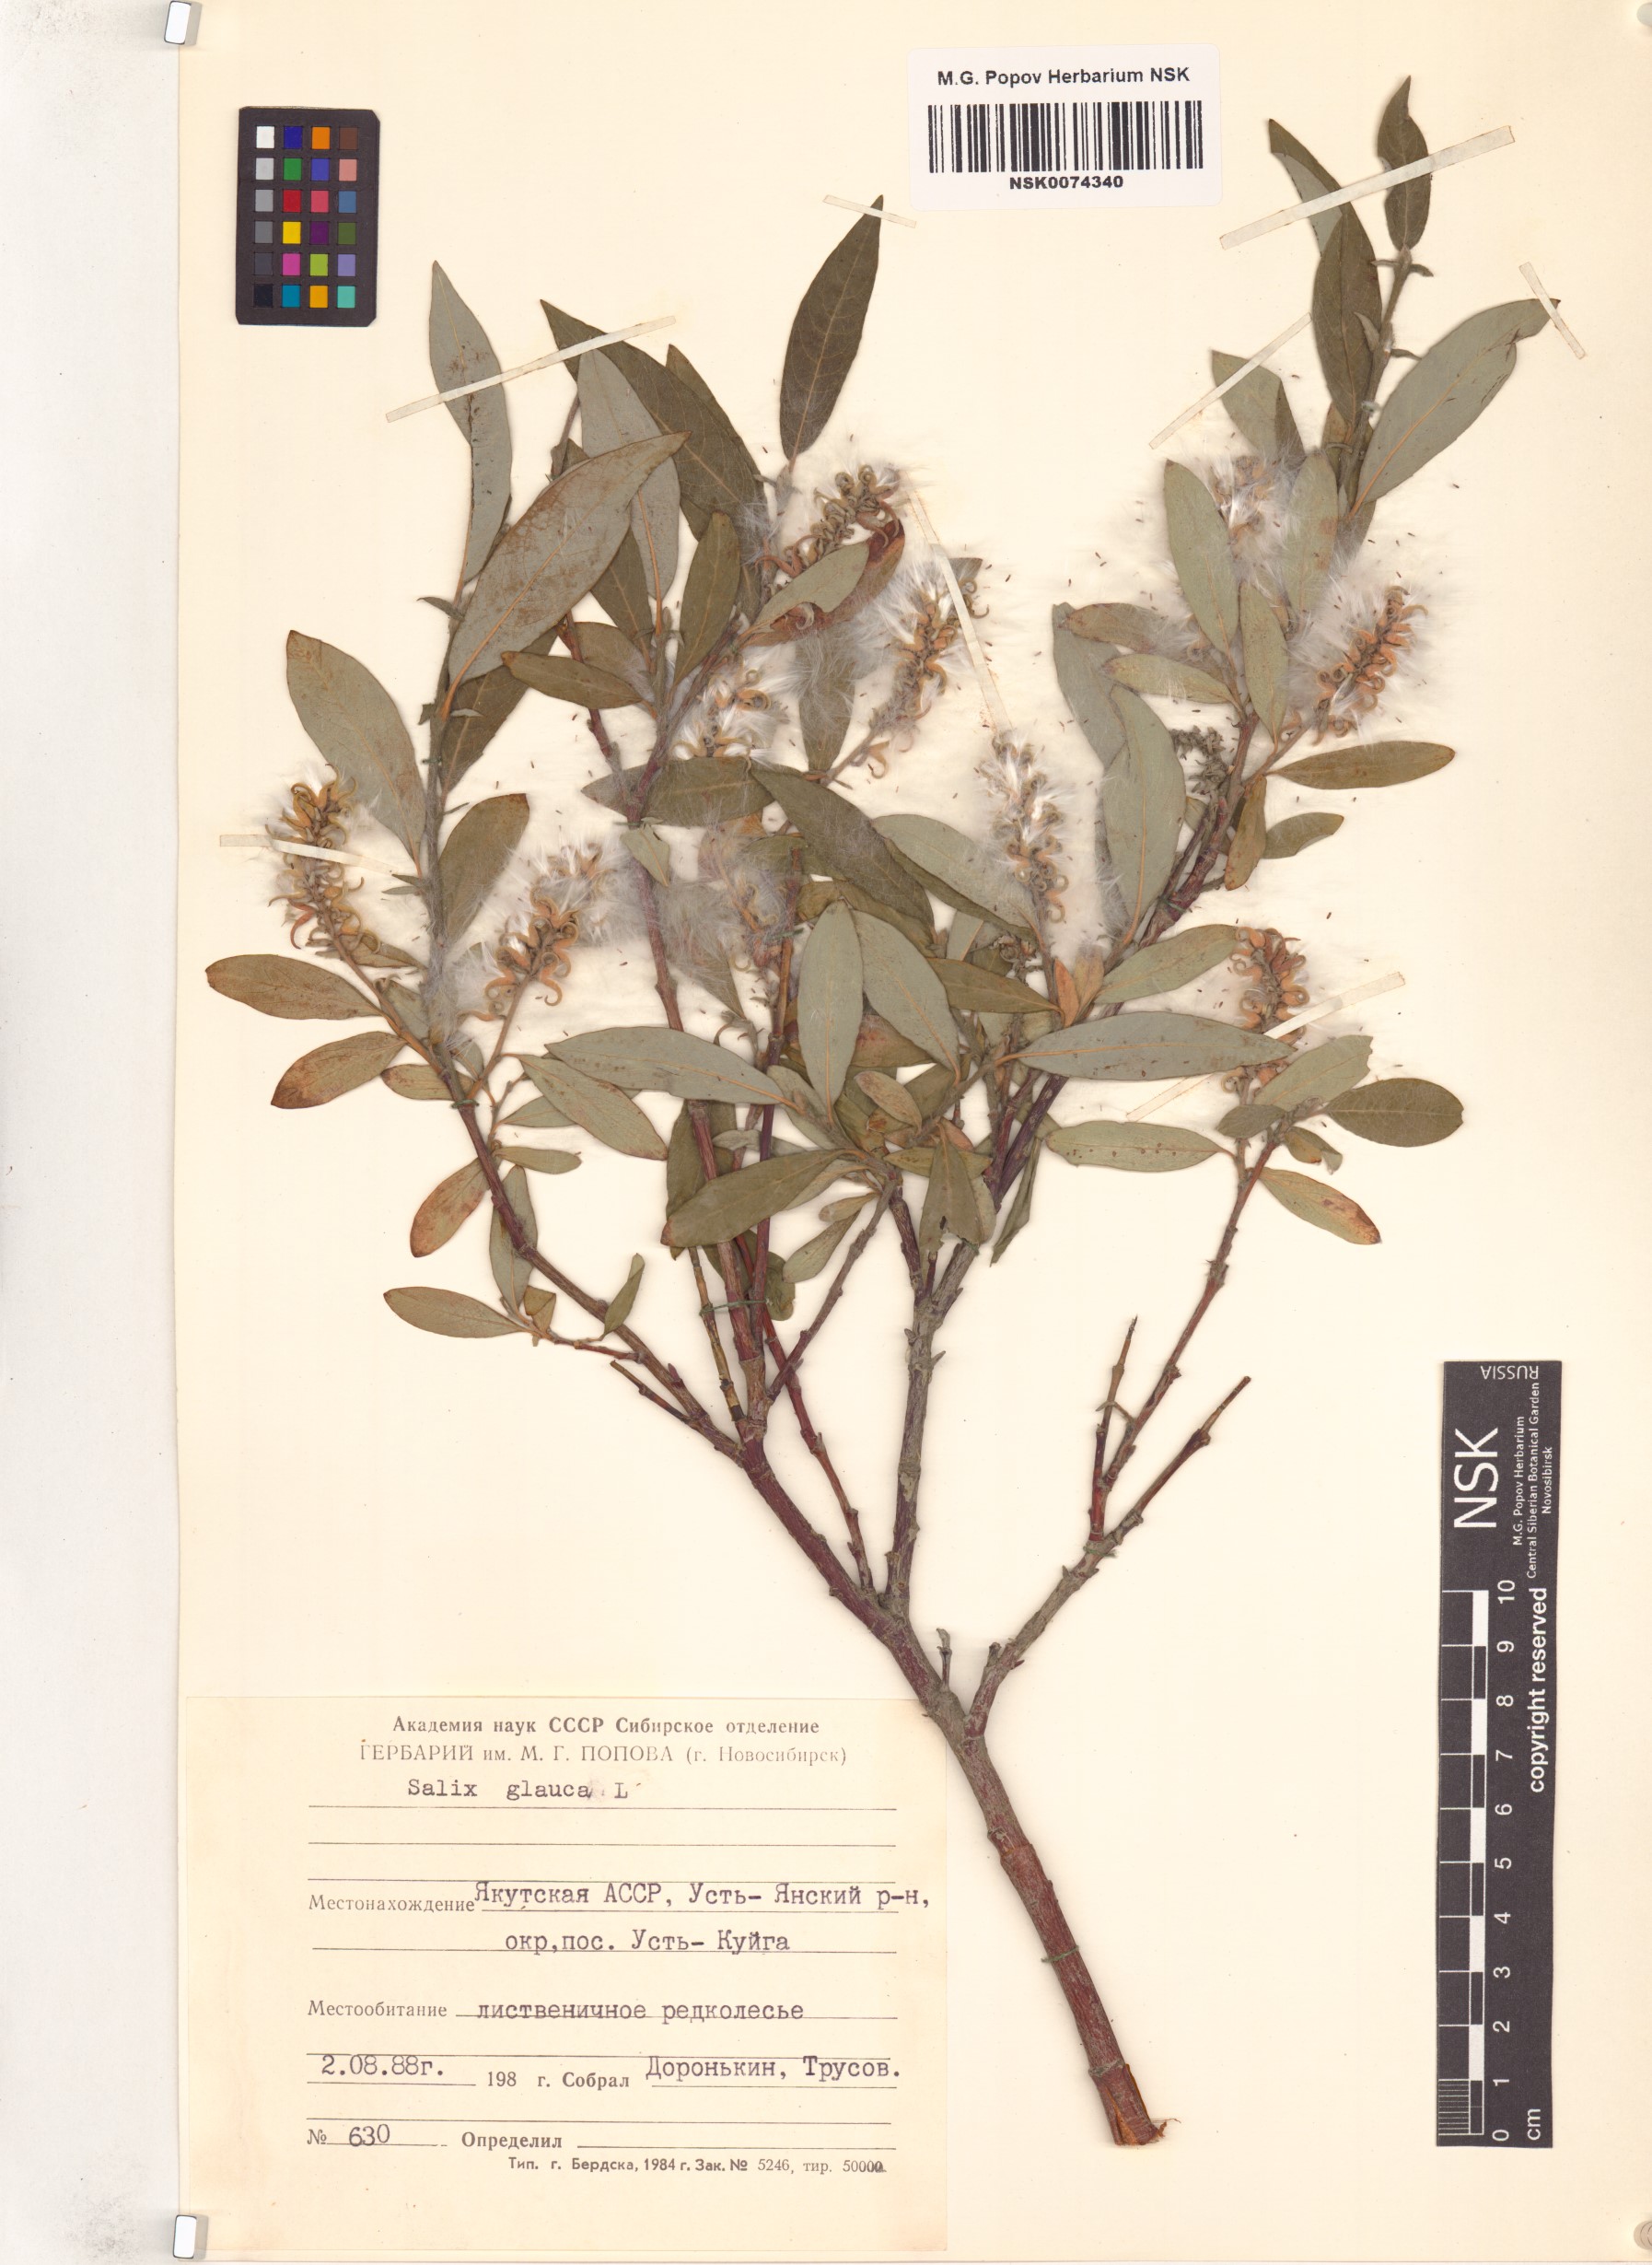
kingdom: Plantae
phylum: Tracheophyta
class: Magnoliopsida
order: Malpighiales
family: Salicaceae
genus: Salix
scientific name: Salix glauca
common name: Glaucous willow
